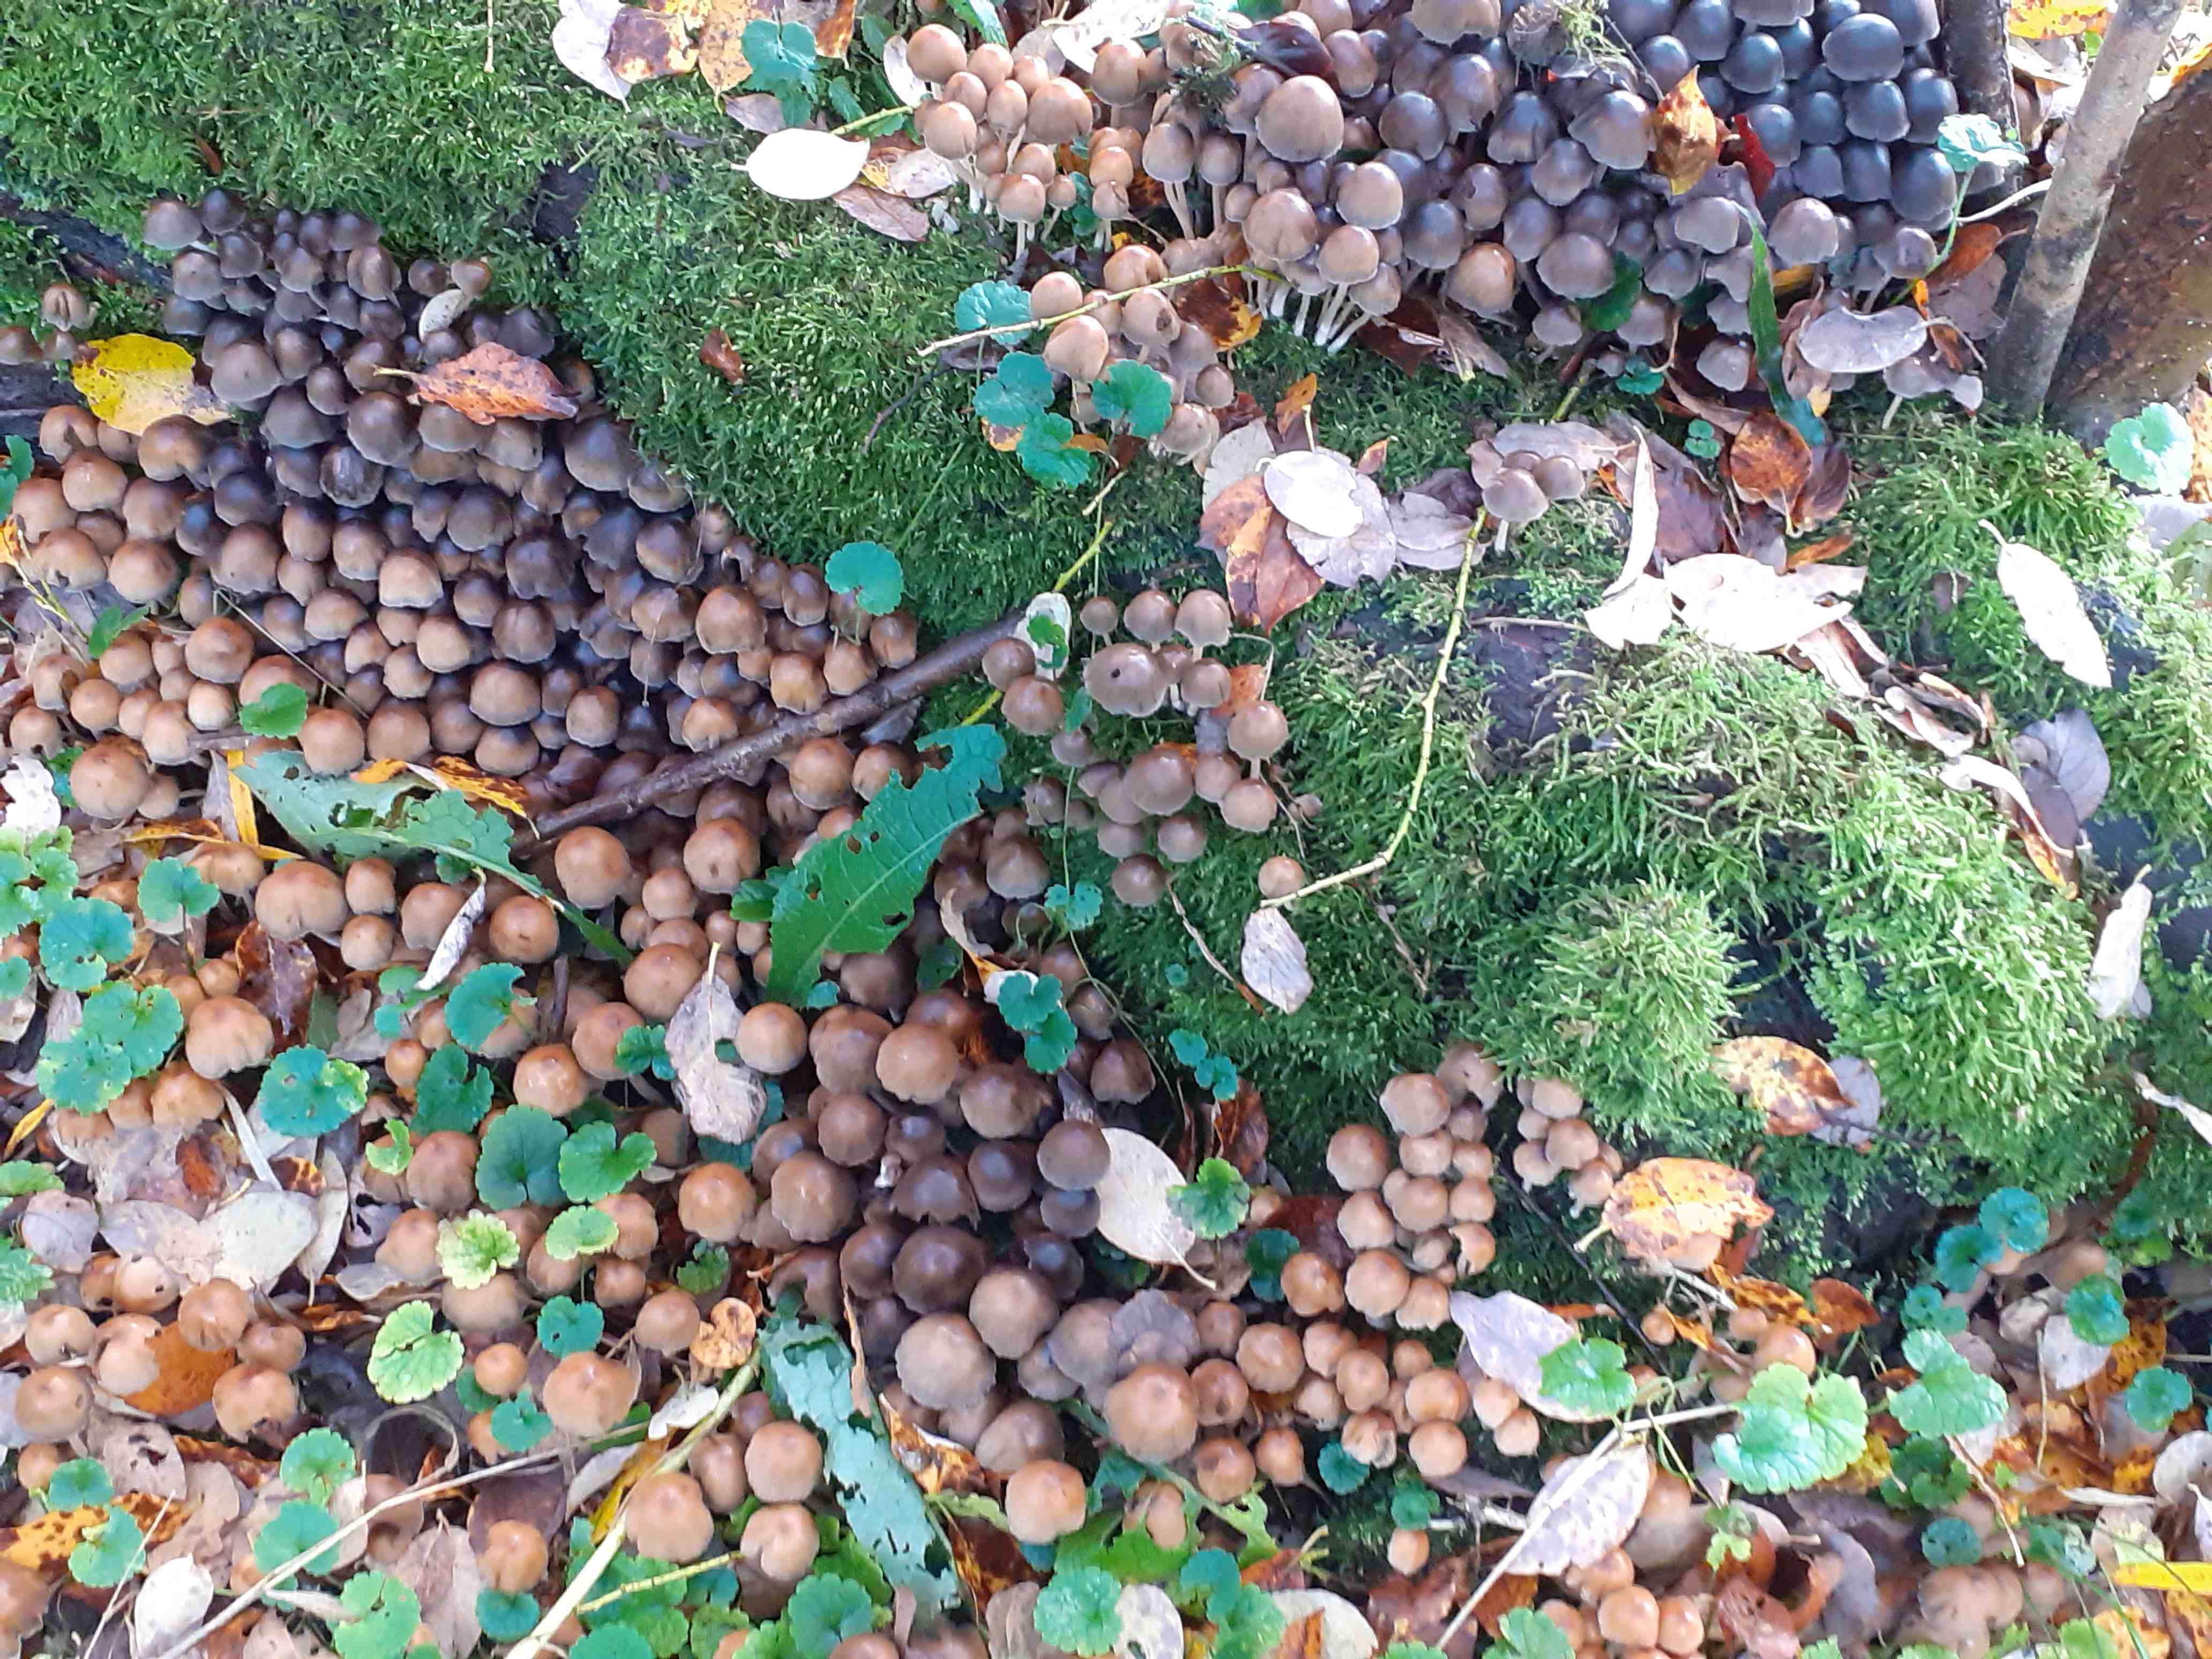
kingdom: Fungi
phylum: Basidiomycota
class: Agaricomycetes
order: Agaricales
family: Psathyrellaceae
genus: Coprinellus
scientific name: Coprinellus micaceus
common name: glimmer-blækhat
